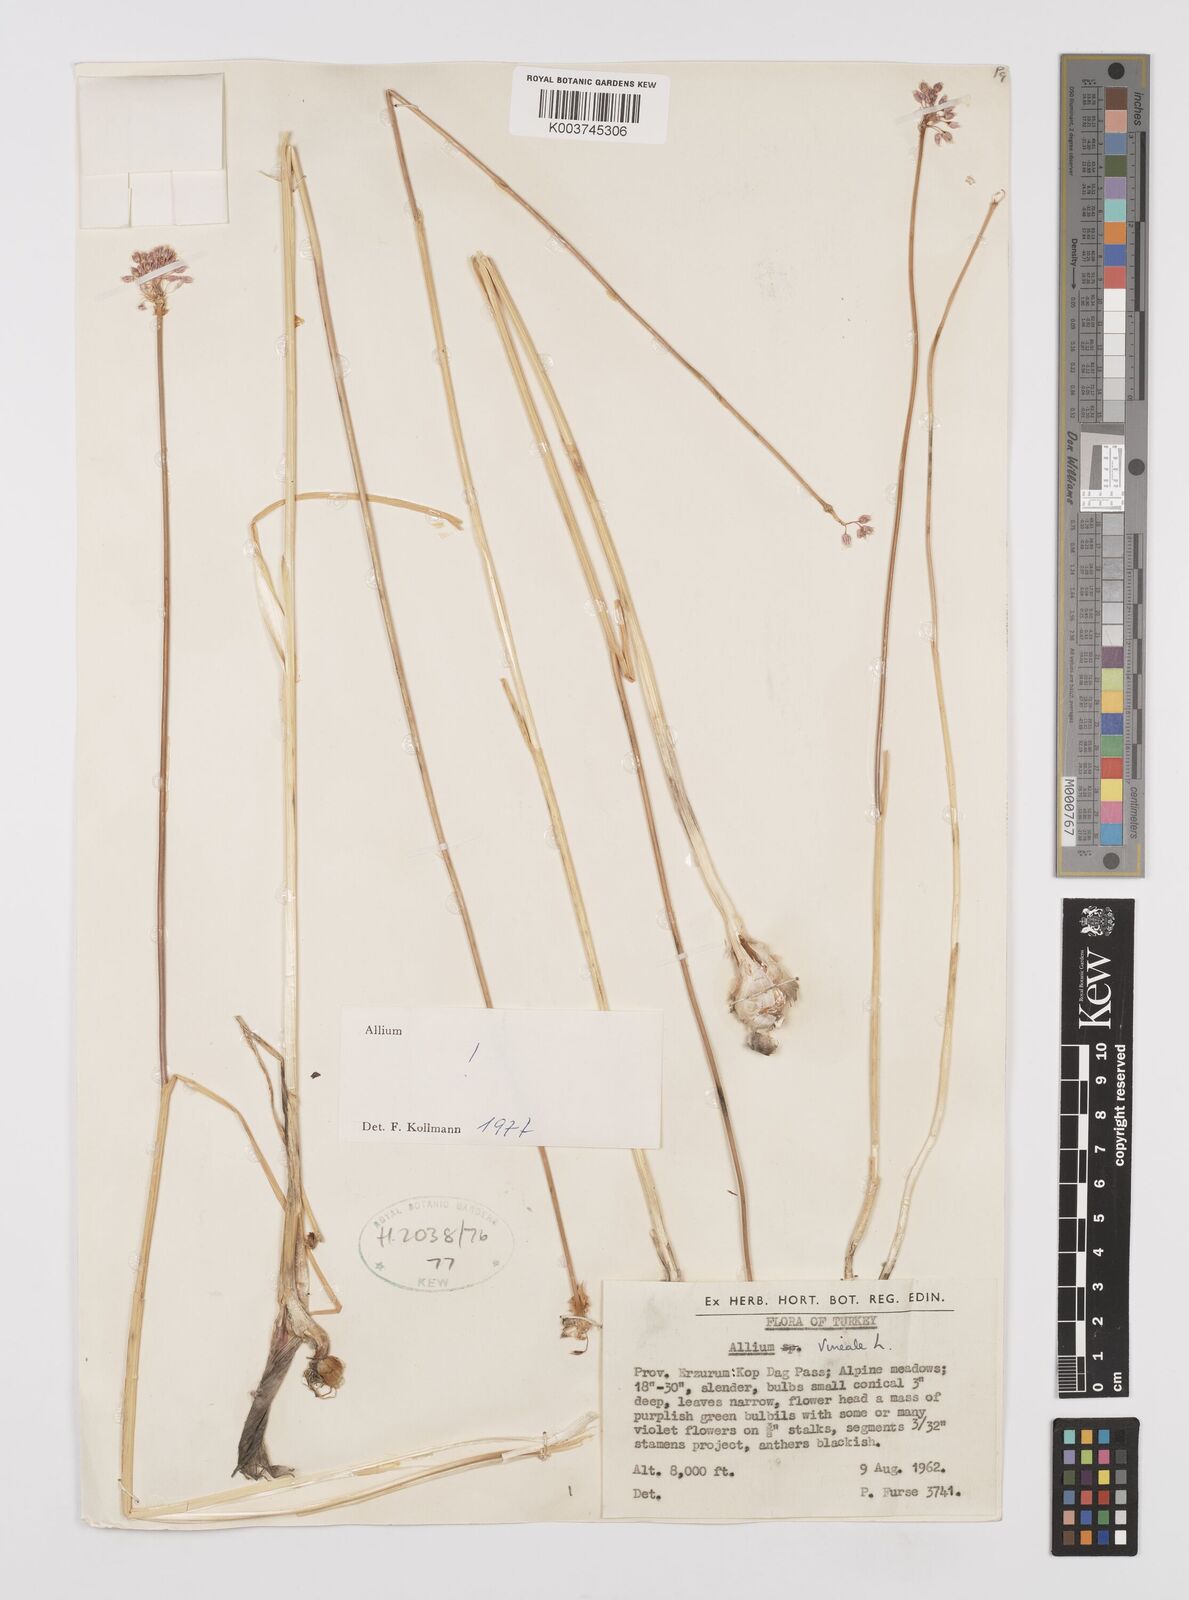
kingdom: Plantae
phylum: Tracheophyta
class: Liliopsida
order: Asparagales
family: Amaryllidaceae
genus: Allium
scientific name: Allium vineale
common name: Crow garlic
